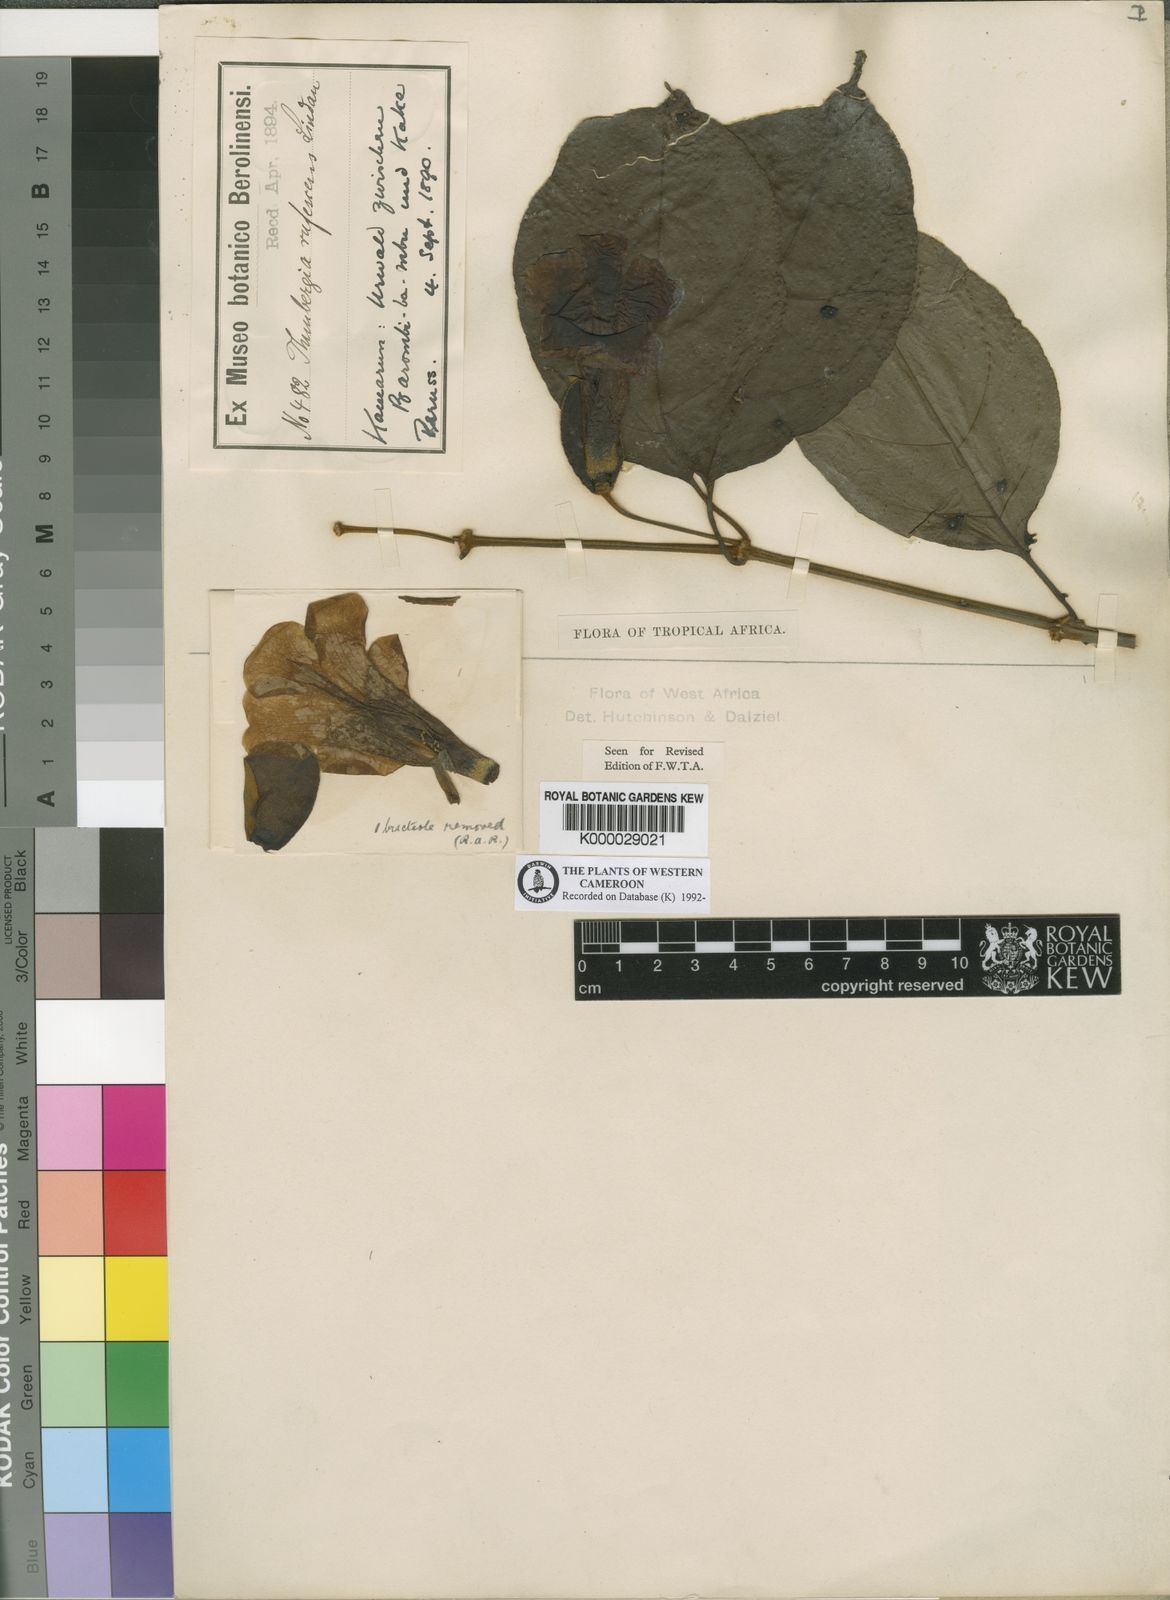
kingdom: Plantae
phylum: Tracheophyta
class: Magnoliopsida
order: Lamiales
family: Acanthaceae
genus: Thunbergia
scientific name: Thunbergia rufescens
